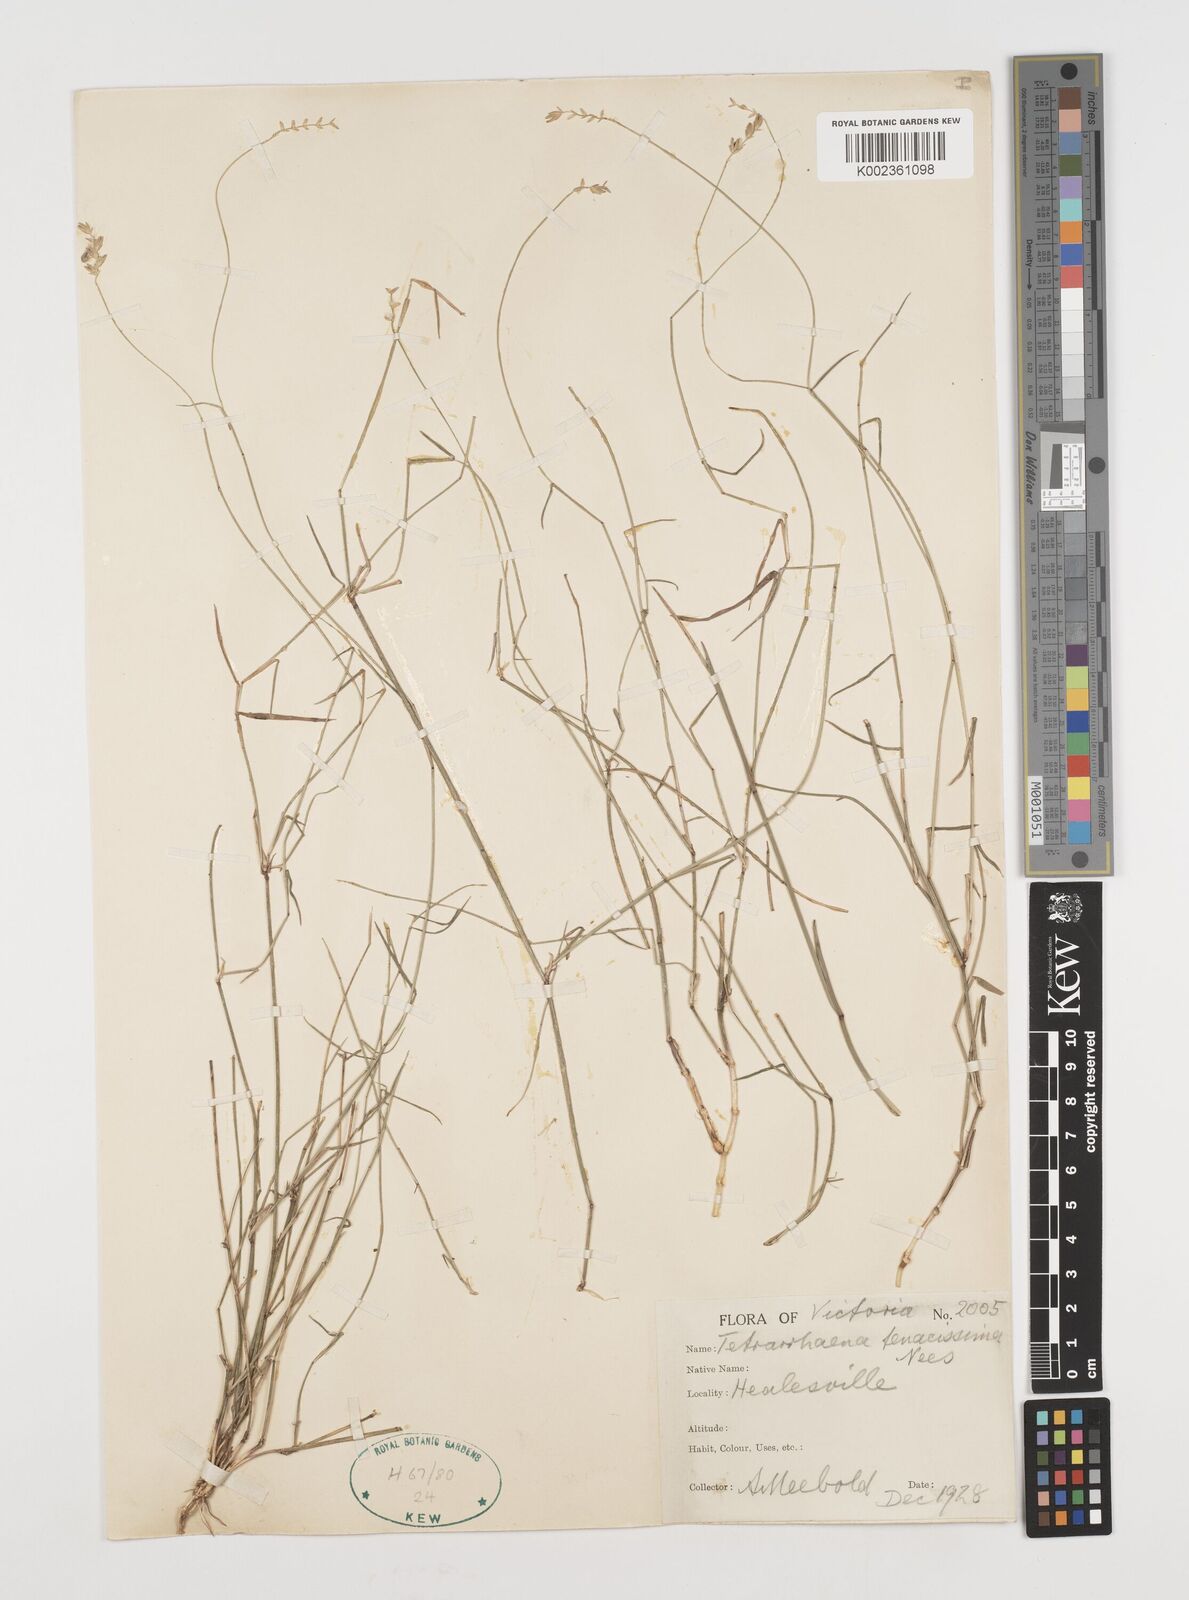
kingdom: Plantae
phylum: Tracheophyta
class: Liliopsida
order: Poales
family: Poaceae
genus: Tetrarrhena
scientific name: Tetrarrhena juncea
